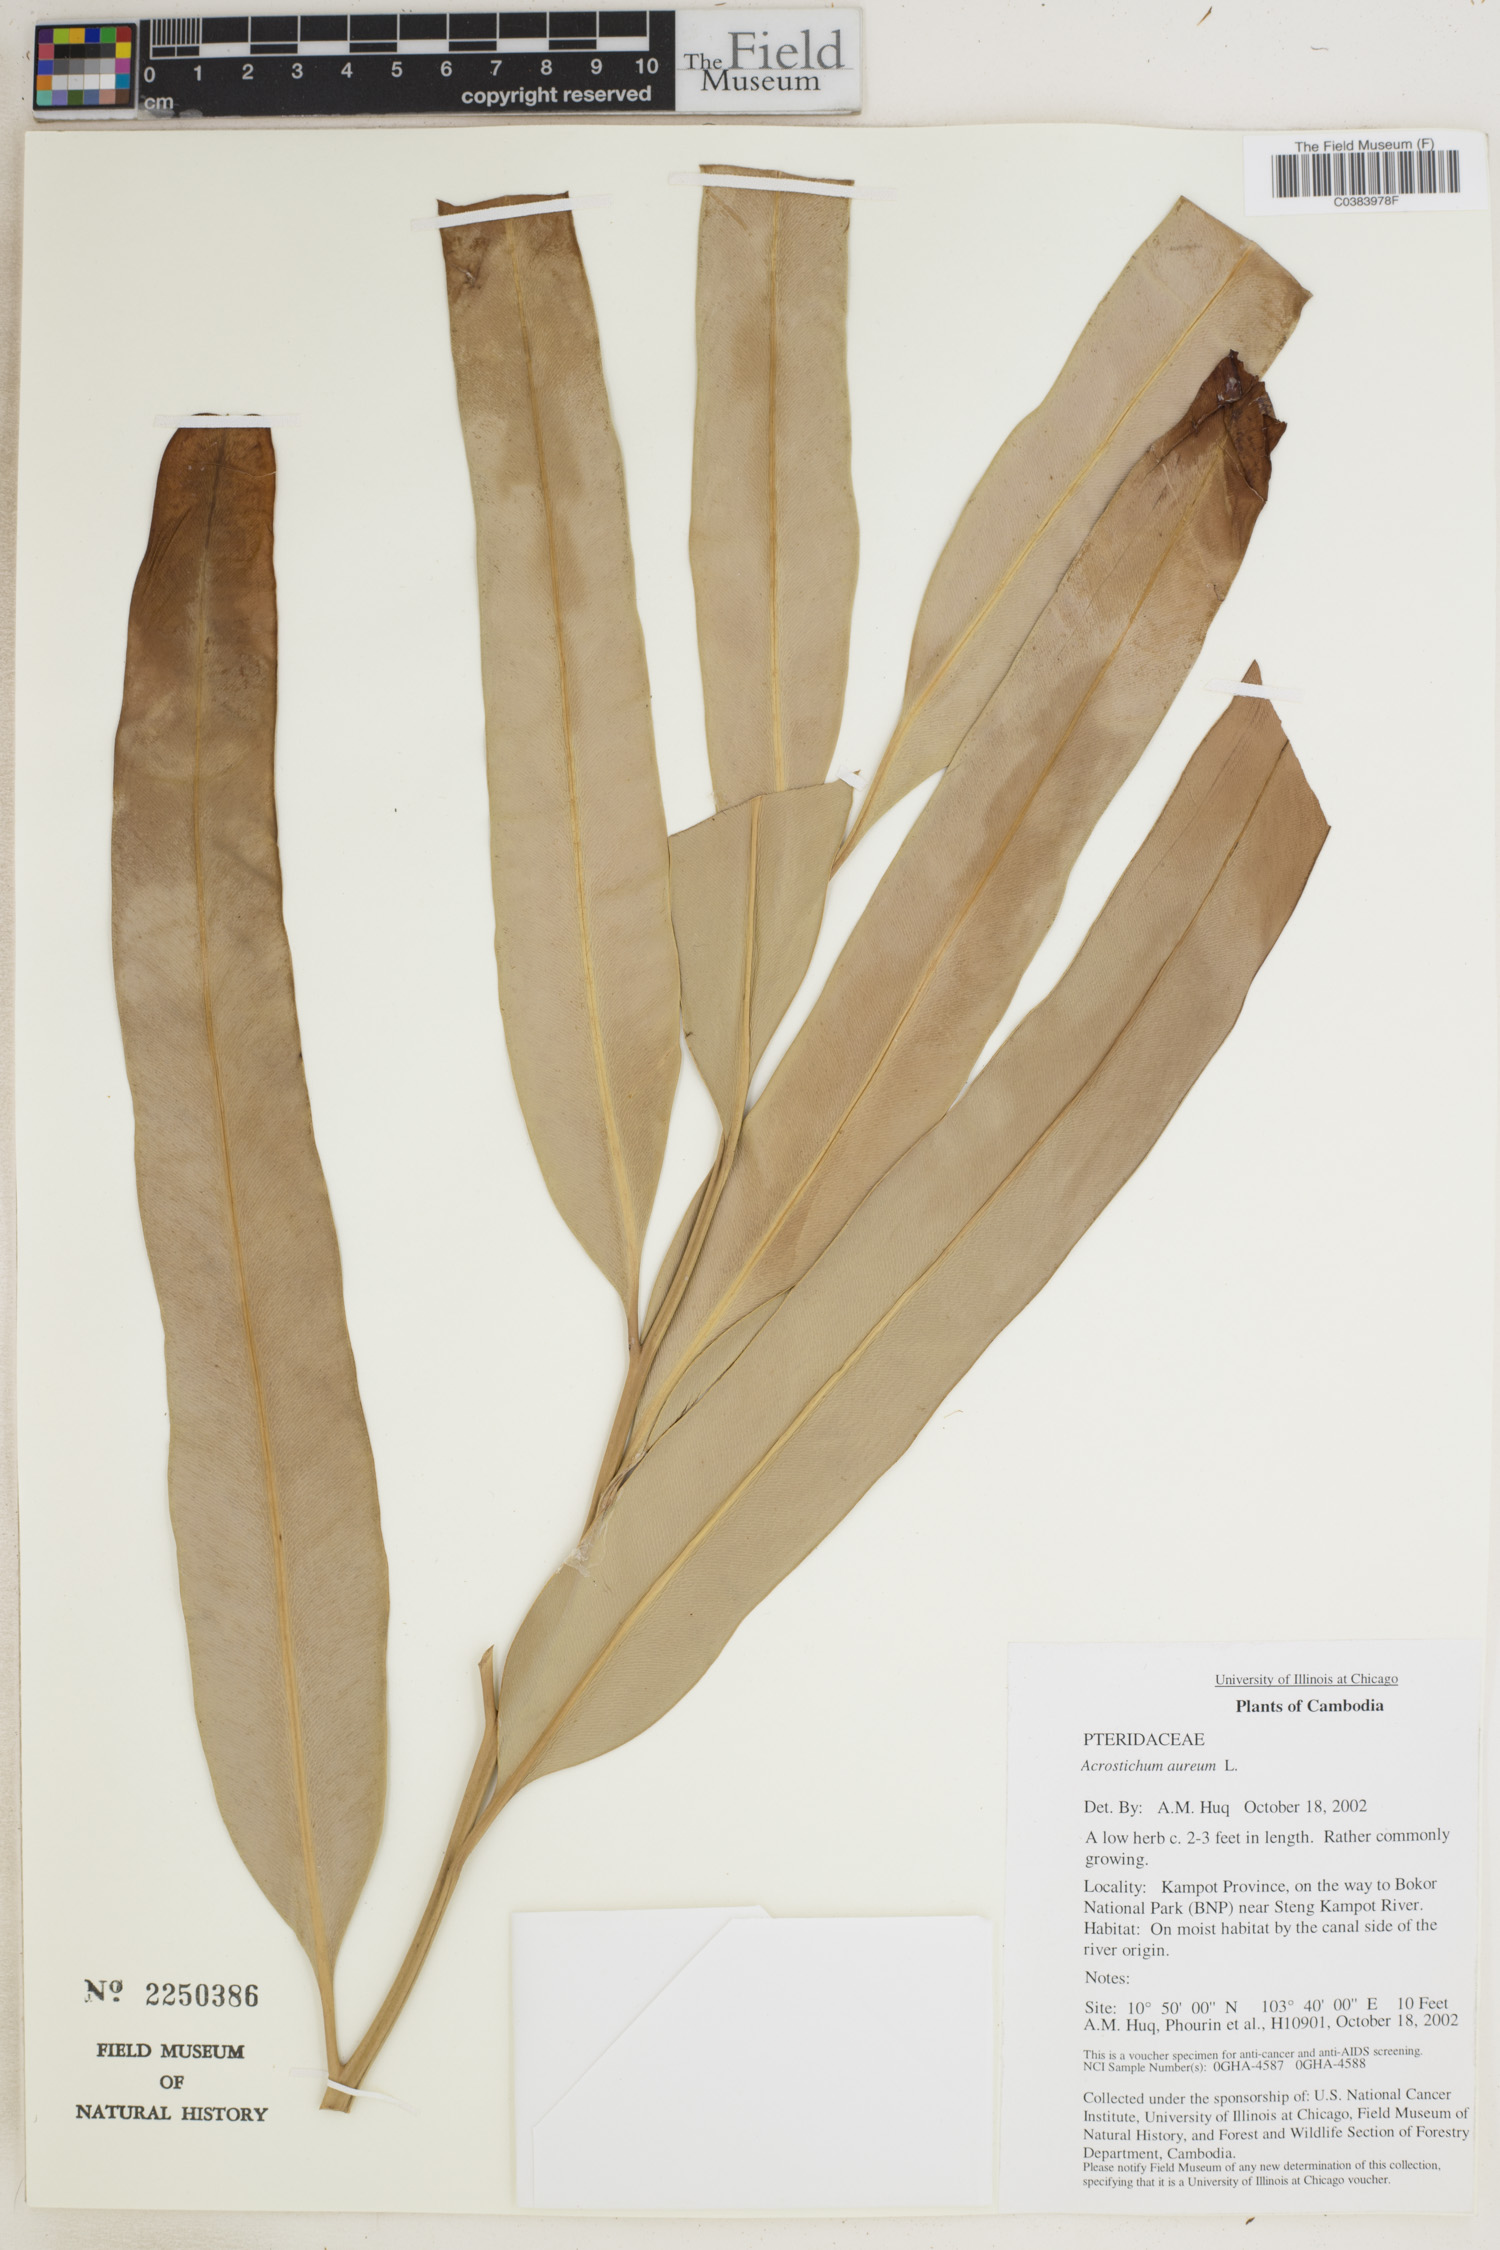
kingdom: Plantae
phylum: Tracheophyta
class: Polypodiopsida
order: Polypodiales
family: Pteridaceae
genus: Acrostichum
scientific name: Acrostichum aureum
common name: Leather fern
